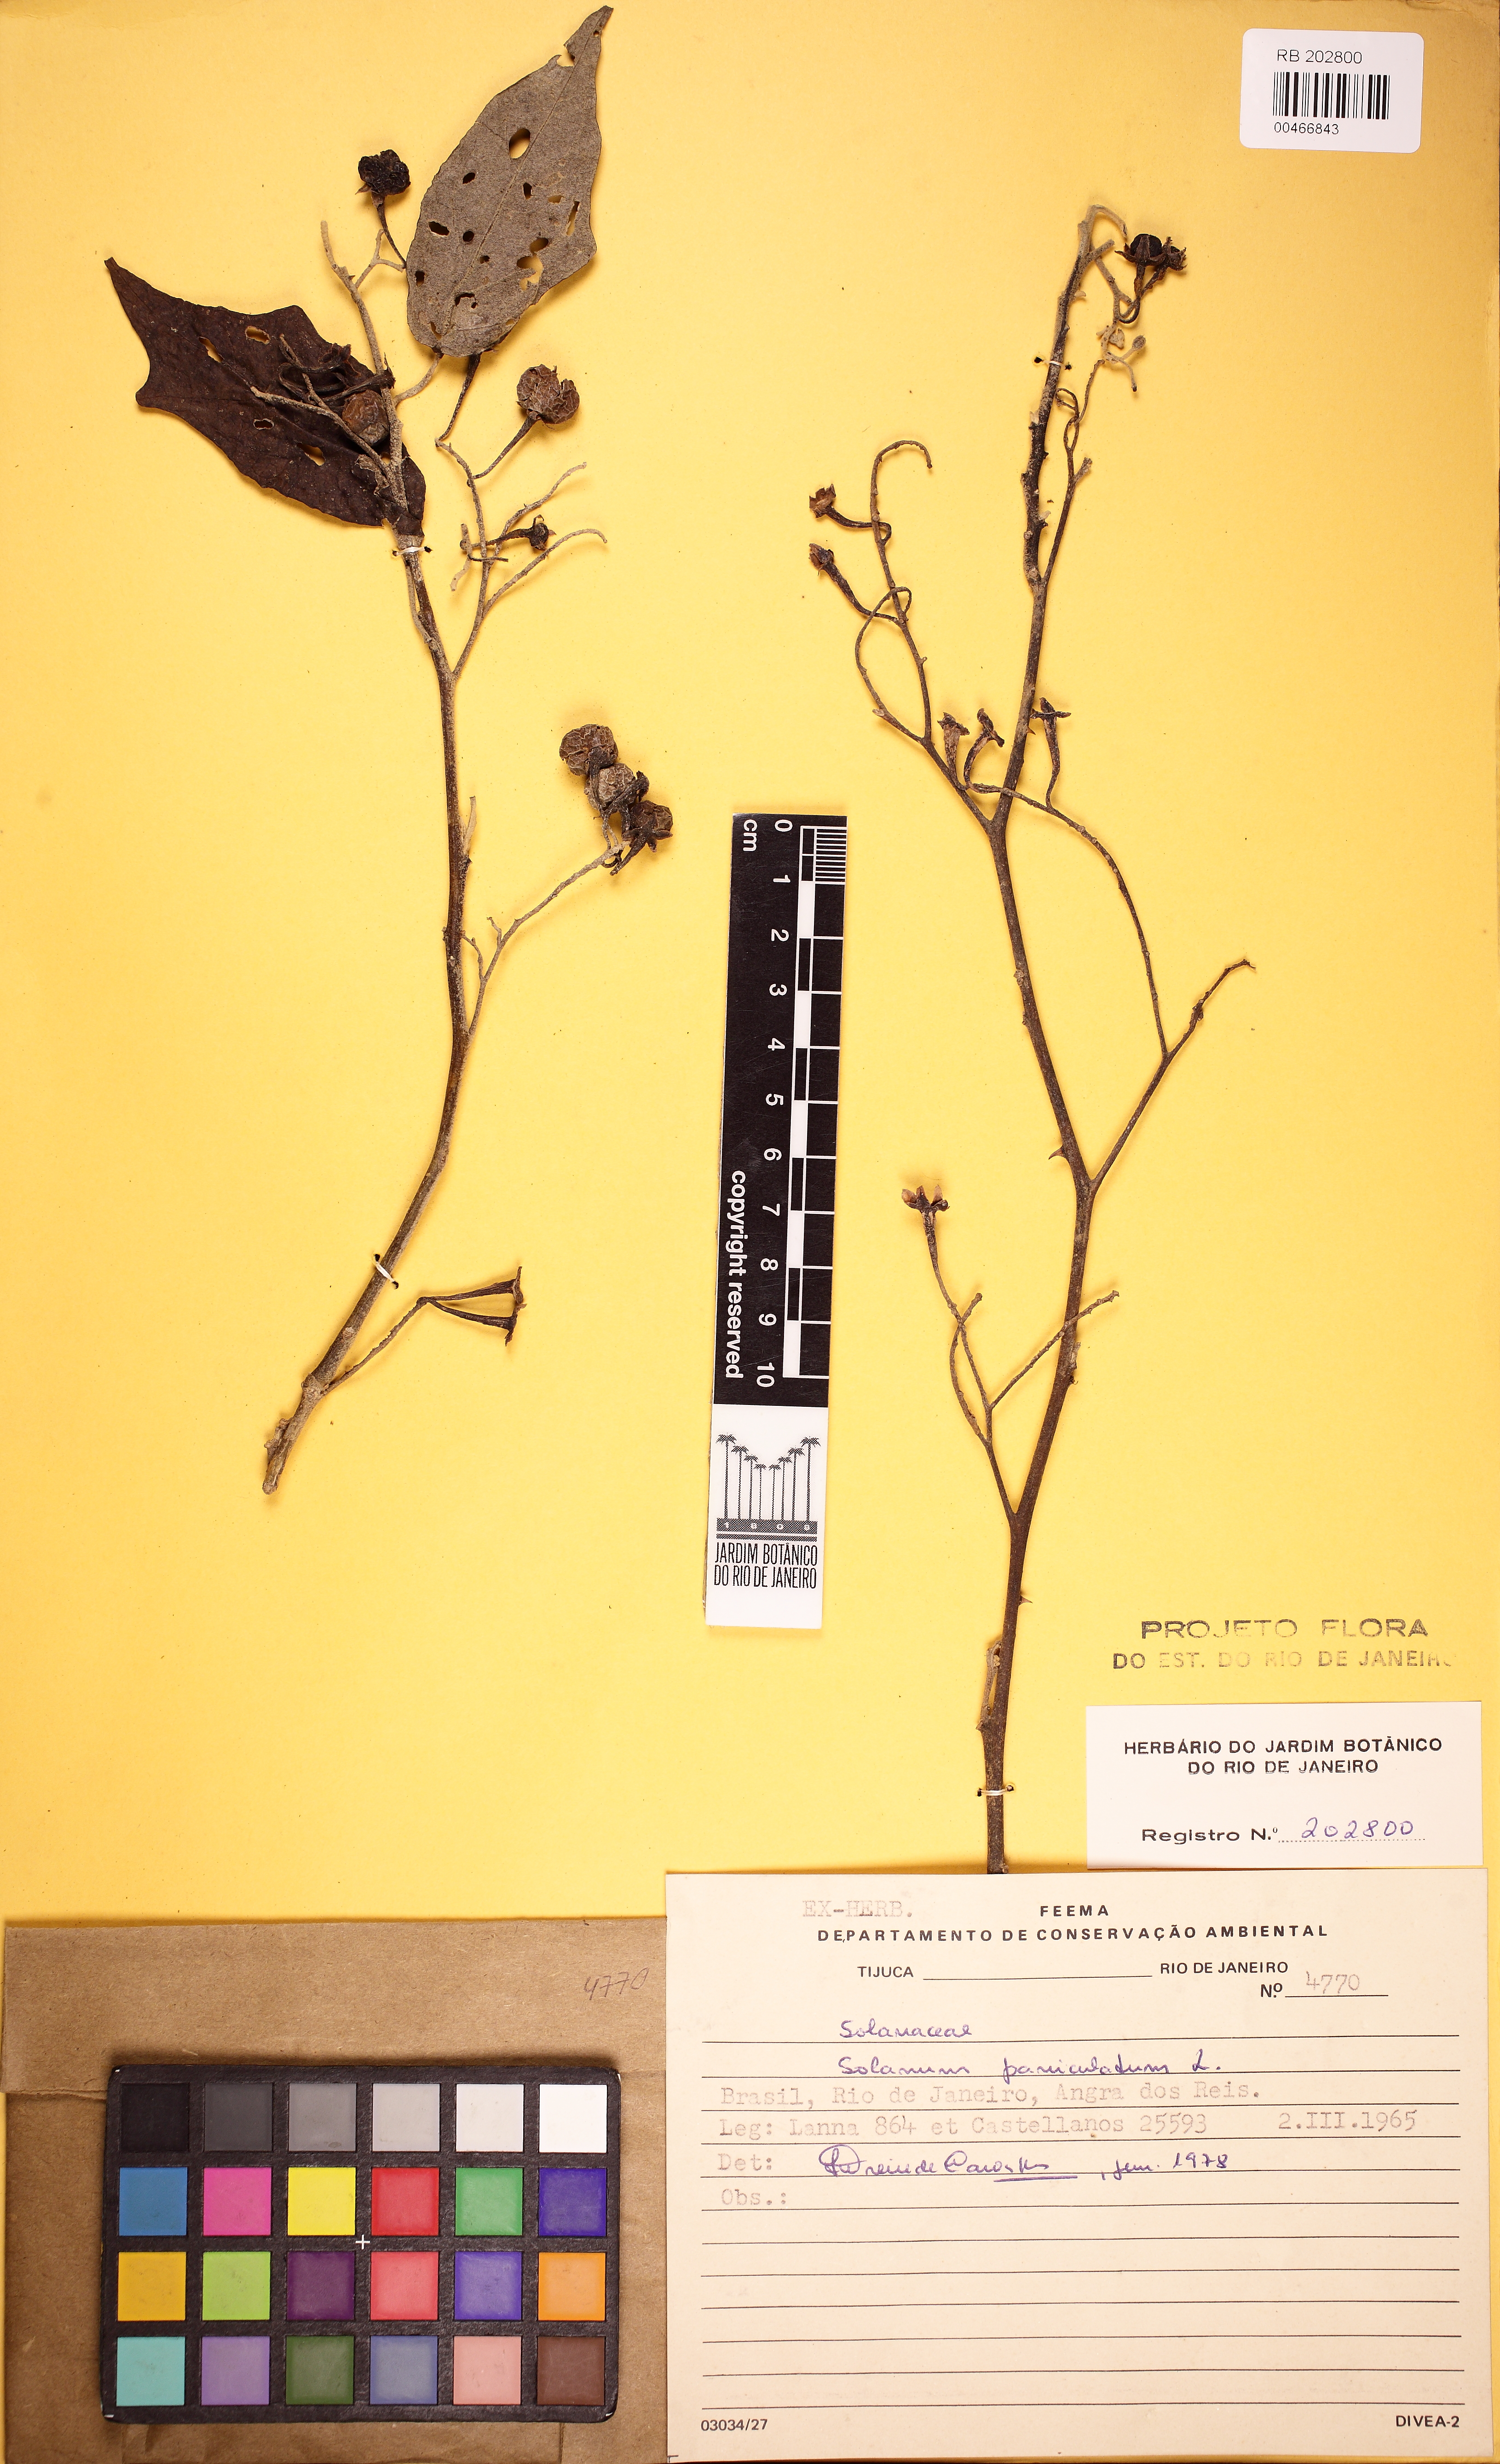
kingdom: Plantae
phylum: Tracheophyta
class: Magnoliopsida
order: Solanales
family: Solanaceae
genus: Solanum
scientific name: Solanum paniculatum
